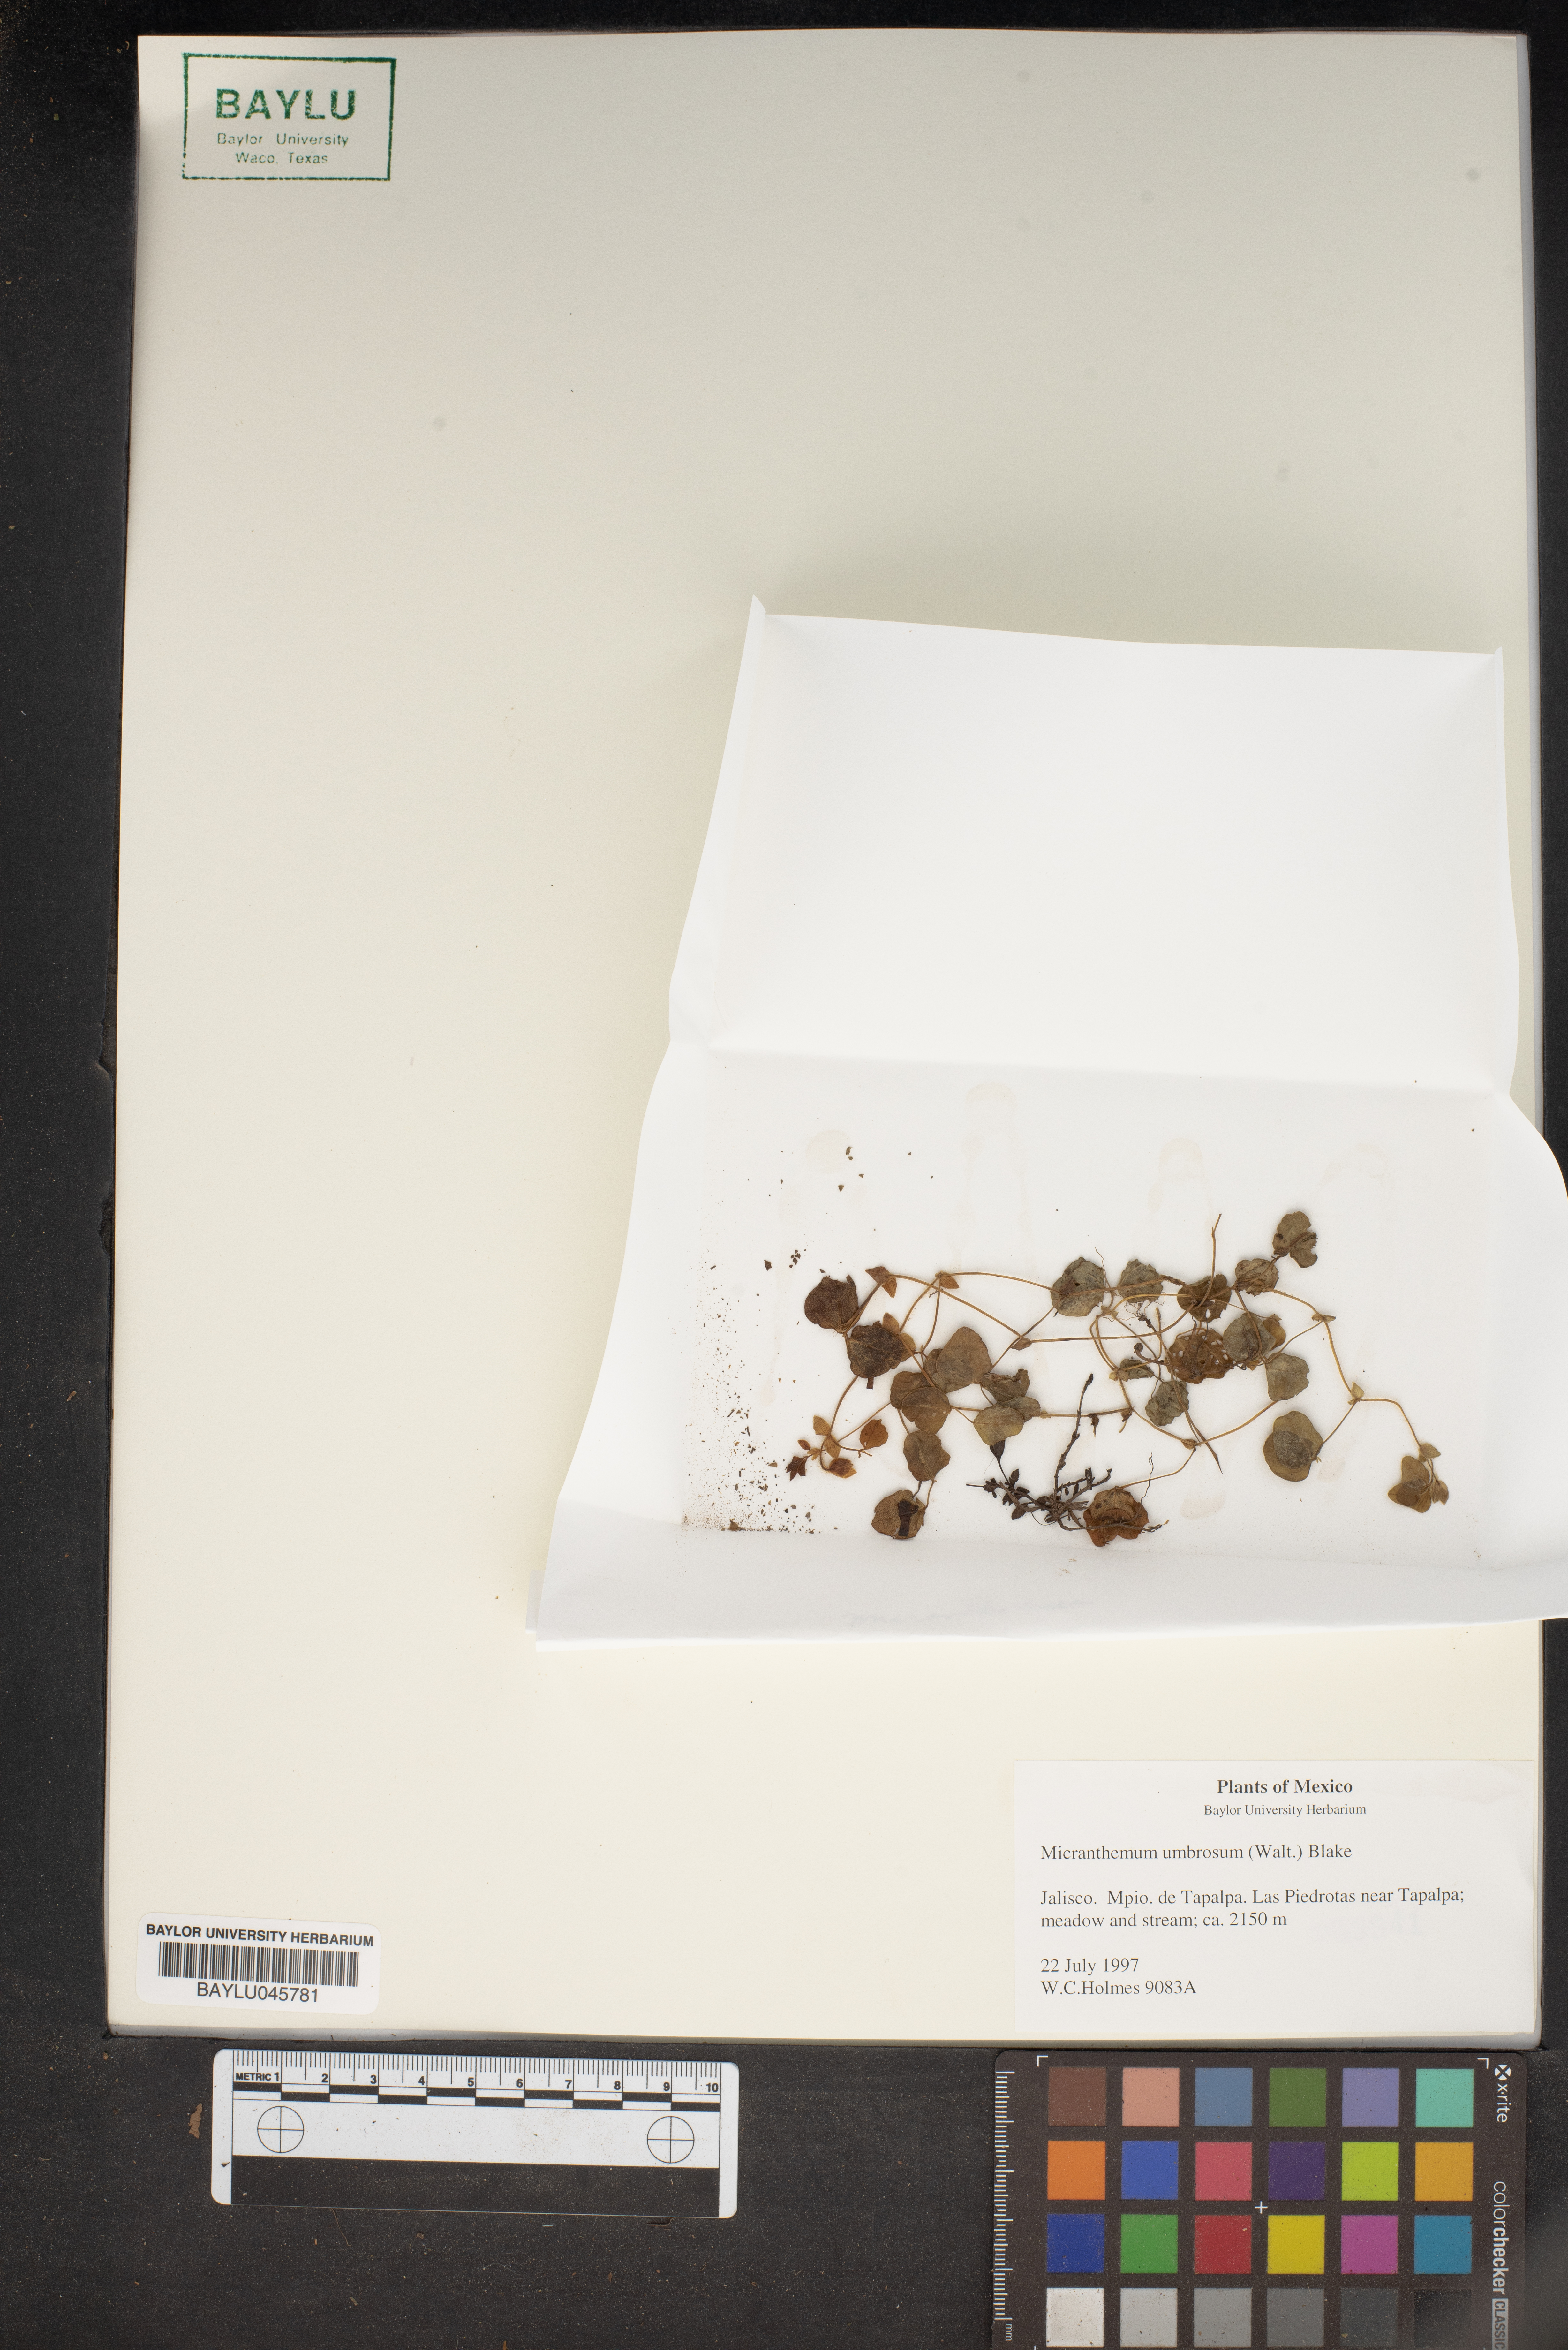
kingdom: Plantae
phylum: Tracheophyta
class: Magnoliopsida
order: Lamiales
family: Linderniaceae
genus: Micranthemum
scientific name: Micranthemum umbrosum
